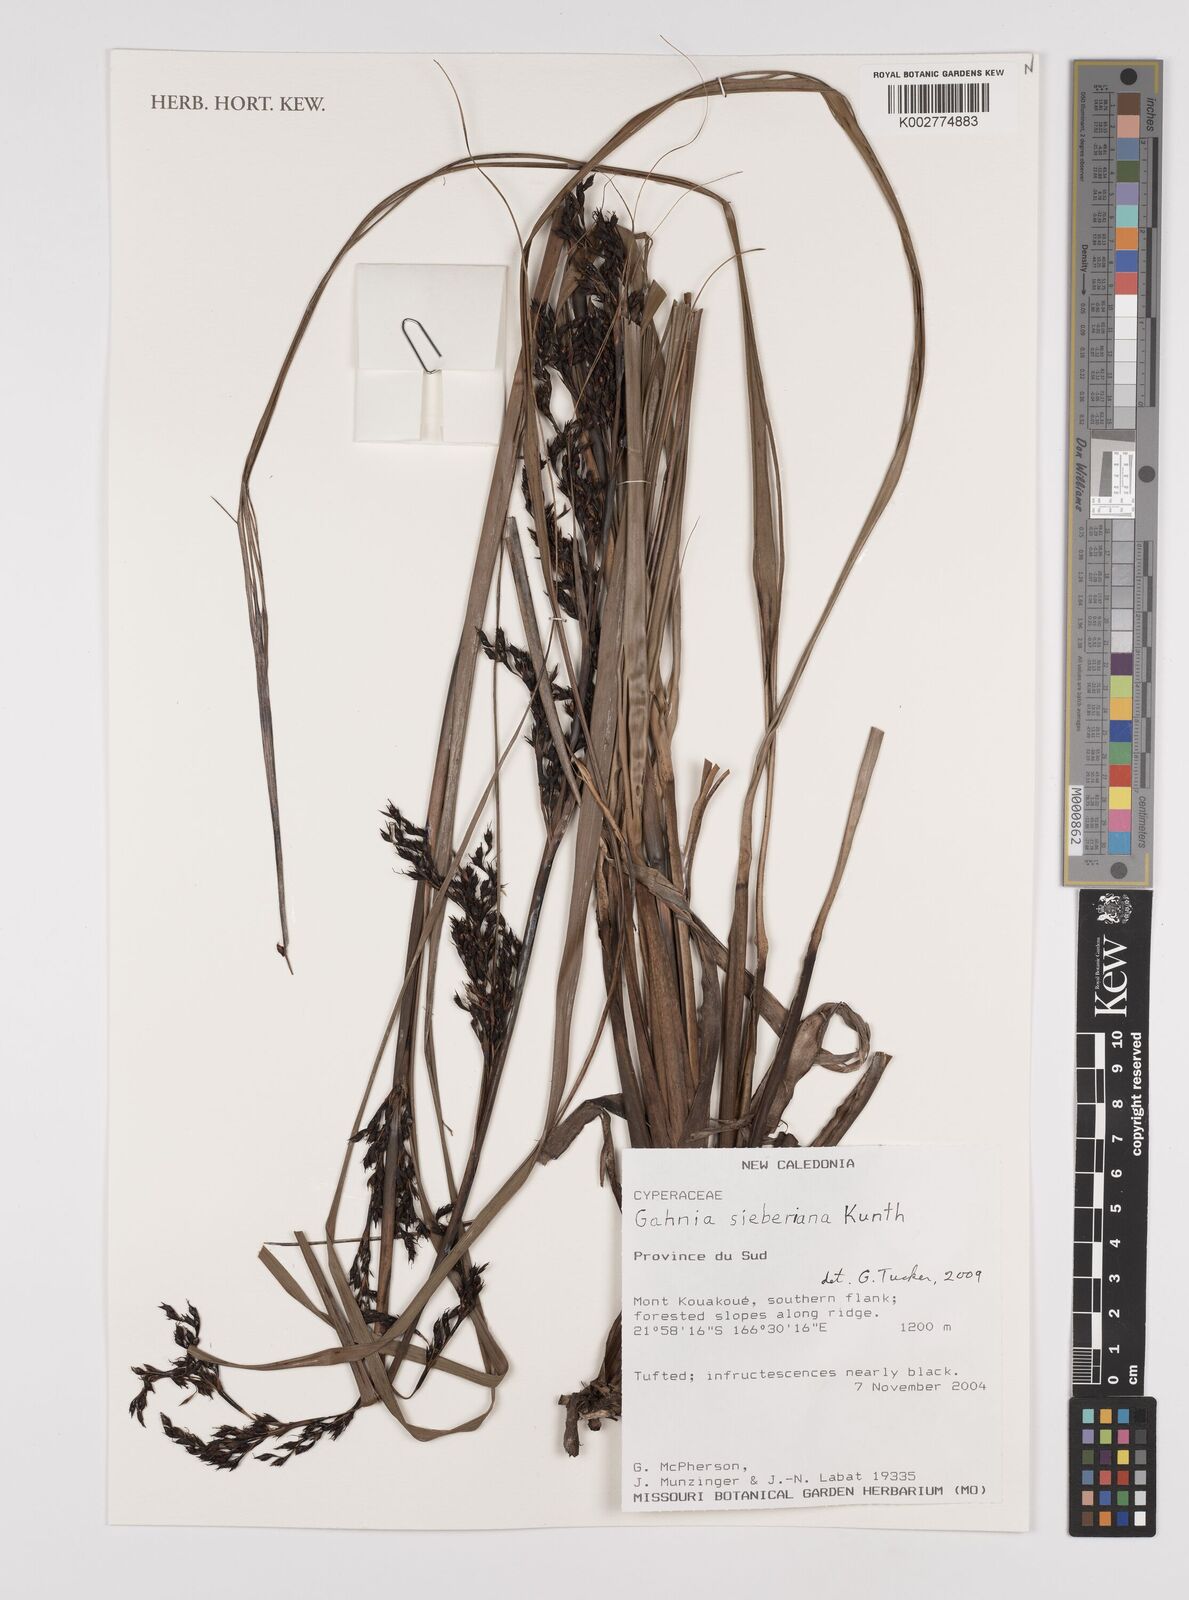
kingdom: Plantae
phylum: Tracheophyta
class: Liliopsida
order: Poales
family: Cyperaceae
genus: Gahnia
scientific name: Gahnia sieberiana
